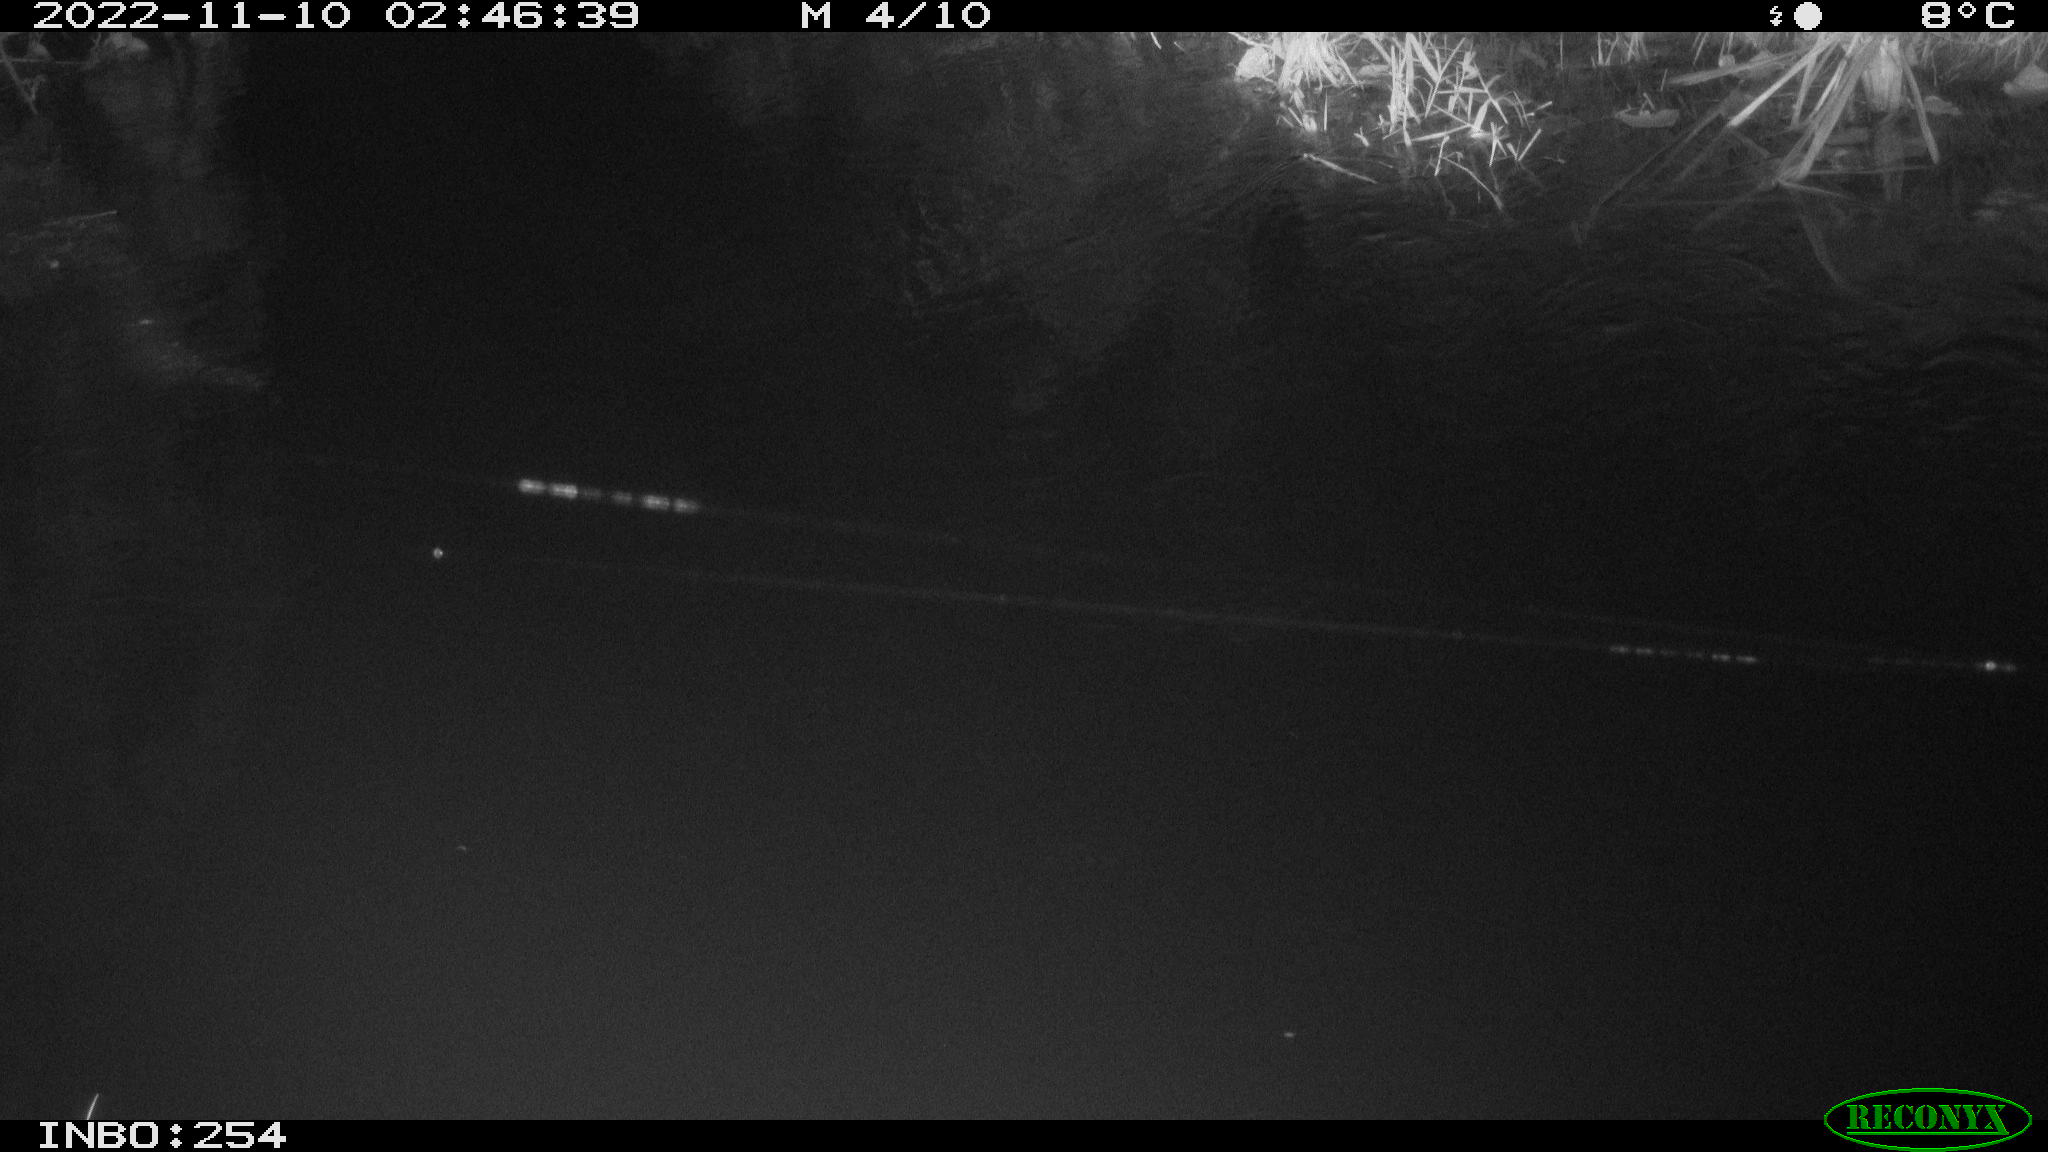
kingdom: Animalia
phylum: Chordata
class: Aves
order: Anseriformes
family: Anatidae
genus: Anas
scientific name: Anas
